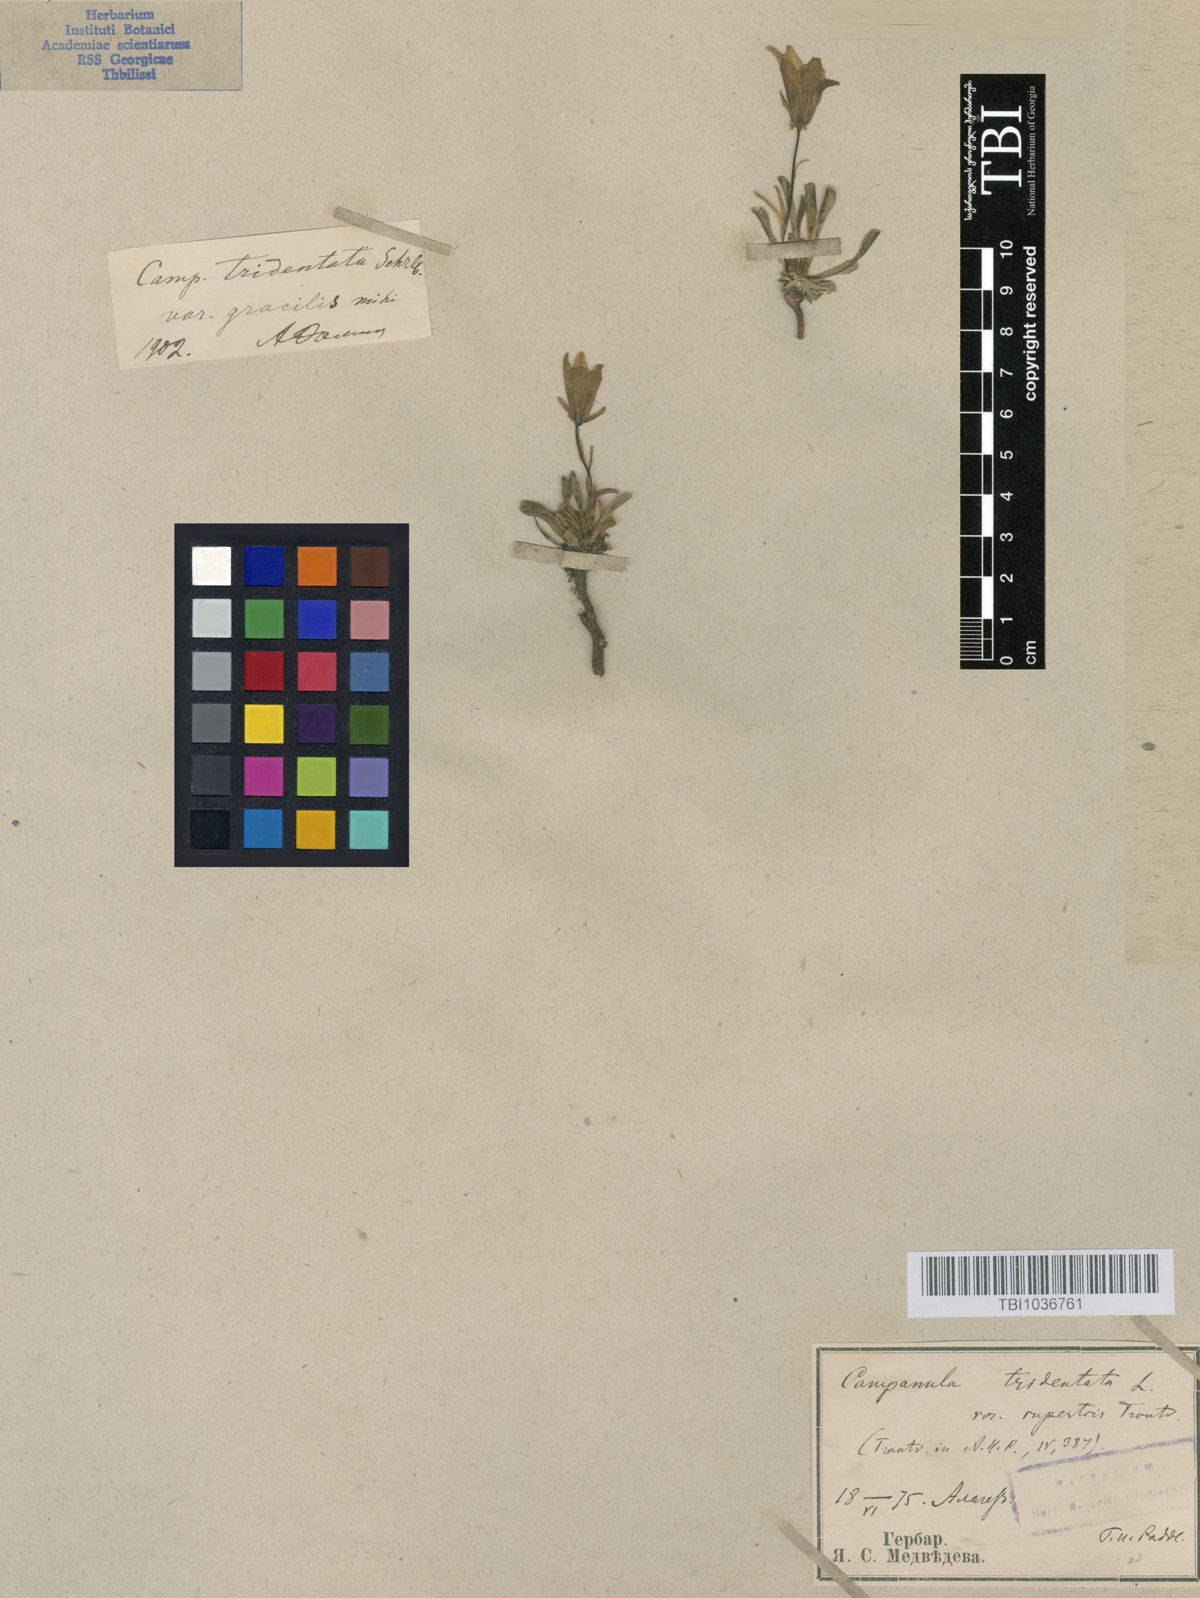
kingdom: Plantae
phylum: Tracheophyta
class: Magnoliopsida
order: Asterales
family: Campanulaceae
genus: Campanula
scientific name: Campanula tridentata
